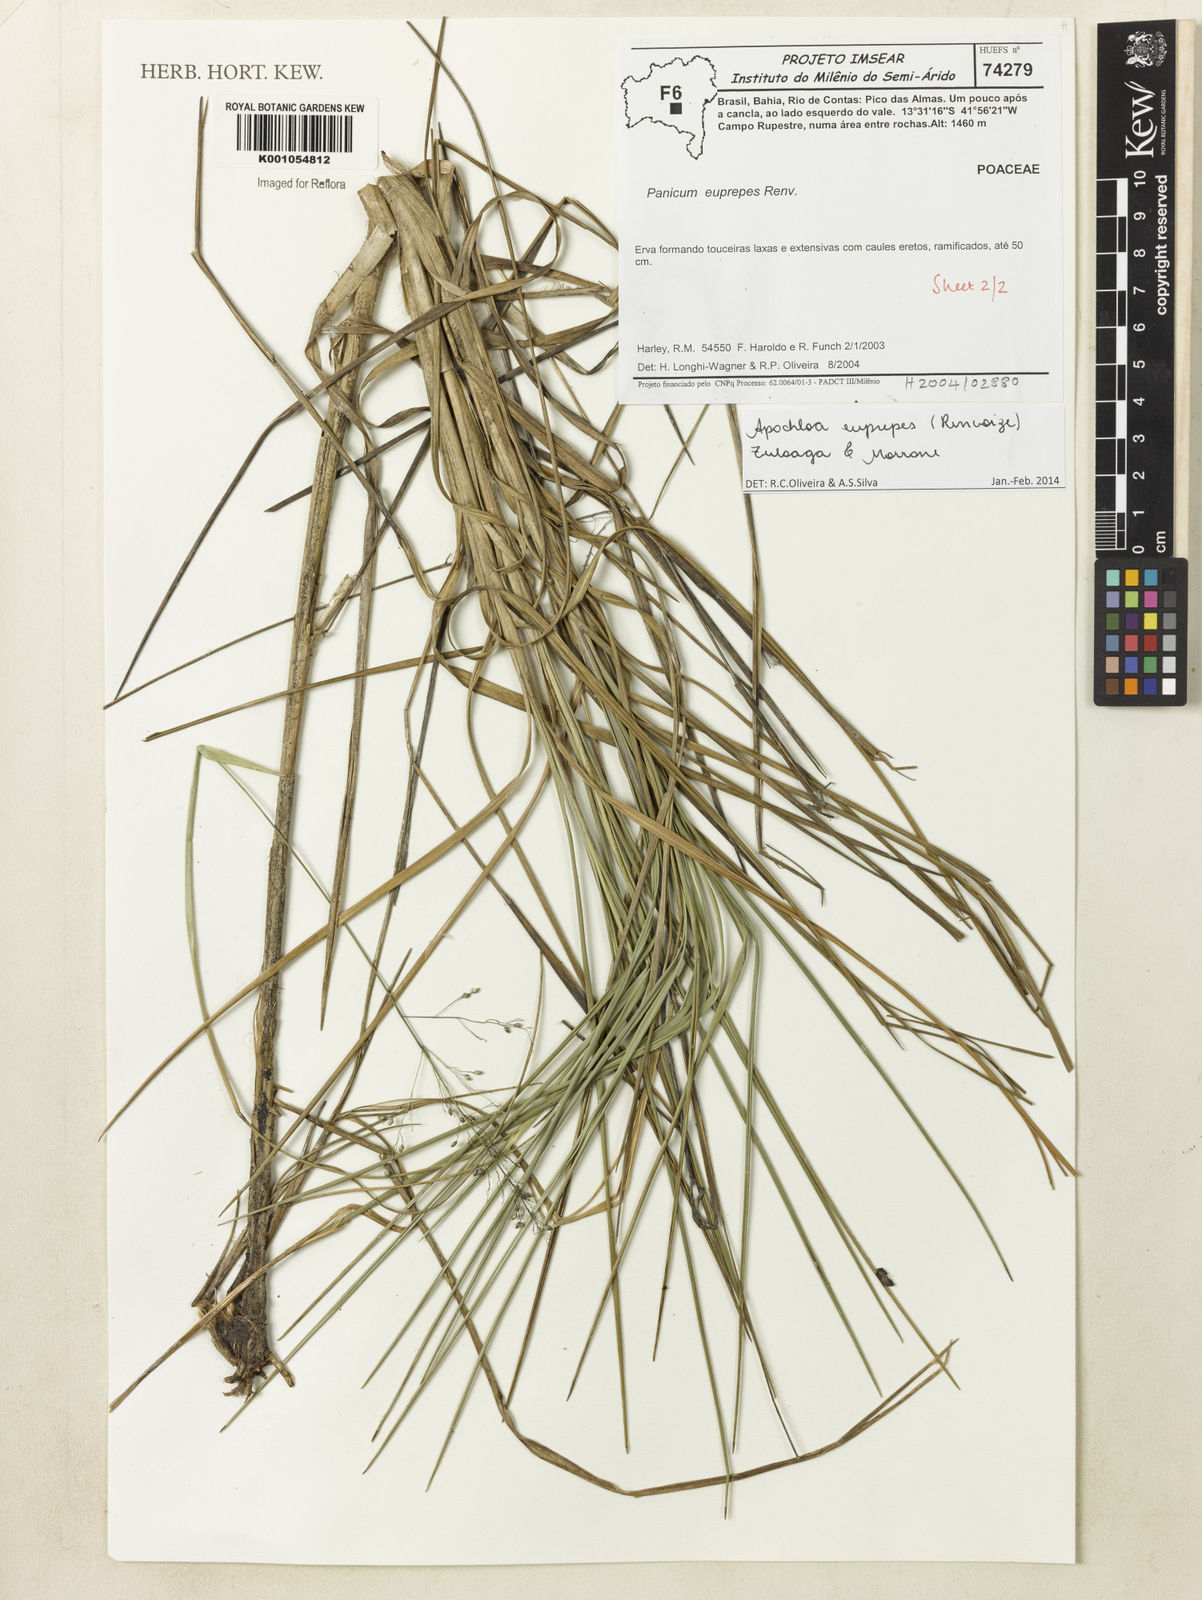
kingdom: Plantae
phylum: Tracheophyta
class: Liliopsida
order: Poales
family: Poaceae
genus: Apochloa
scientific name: Apochloa euprepes
